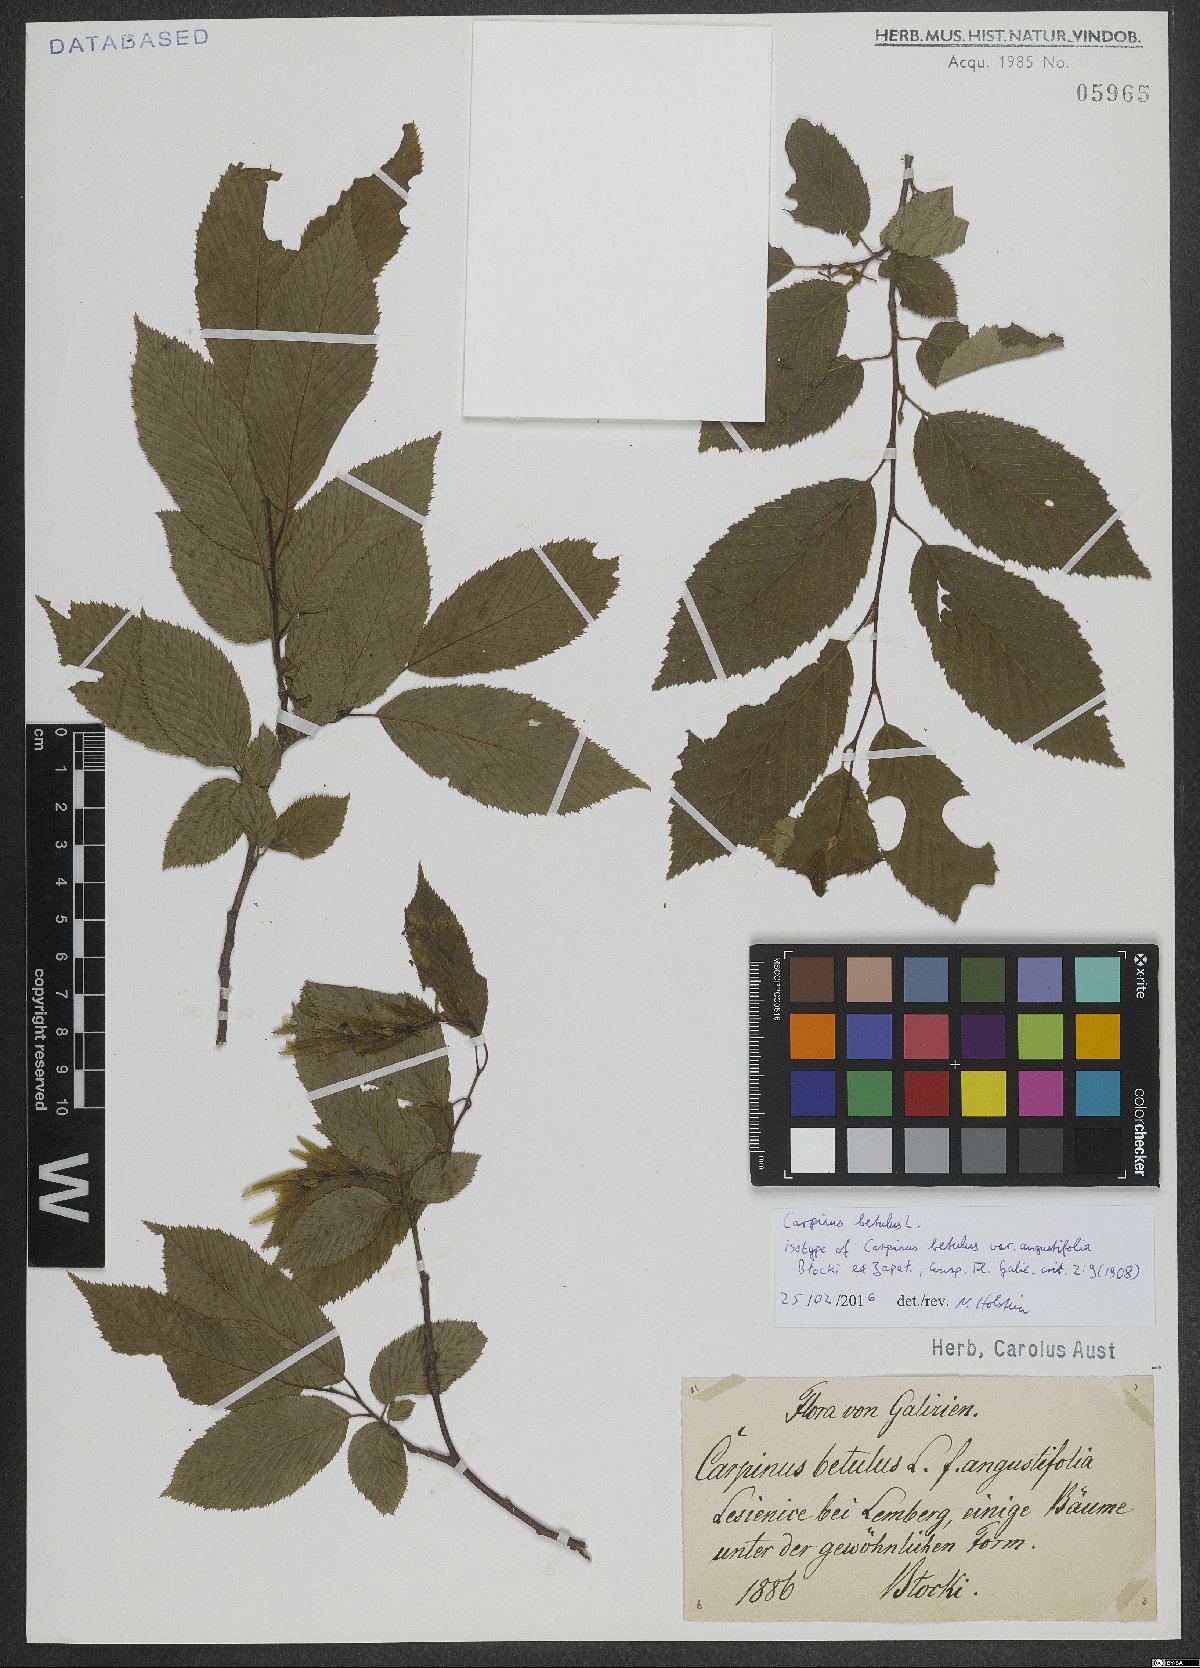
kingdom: Plantae
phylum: Tracheophyta
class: Magnoliopsida
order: Fagales
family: Betulaceae
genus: Carpinus
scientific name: Carpinus betulus
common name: Hornbeam
